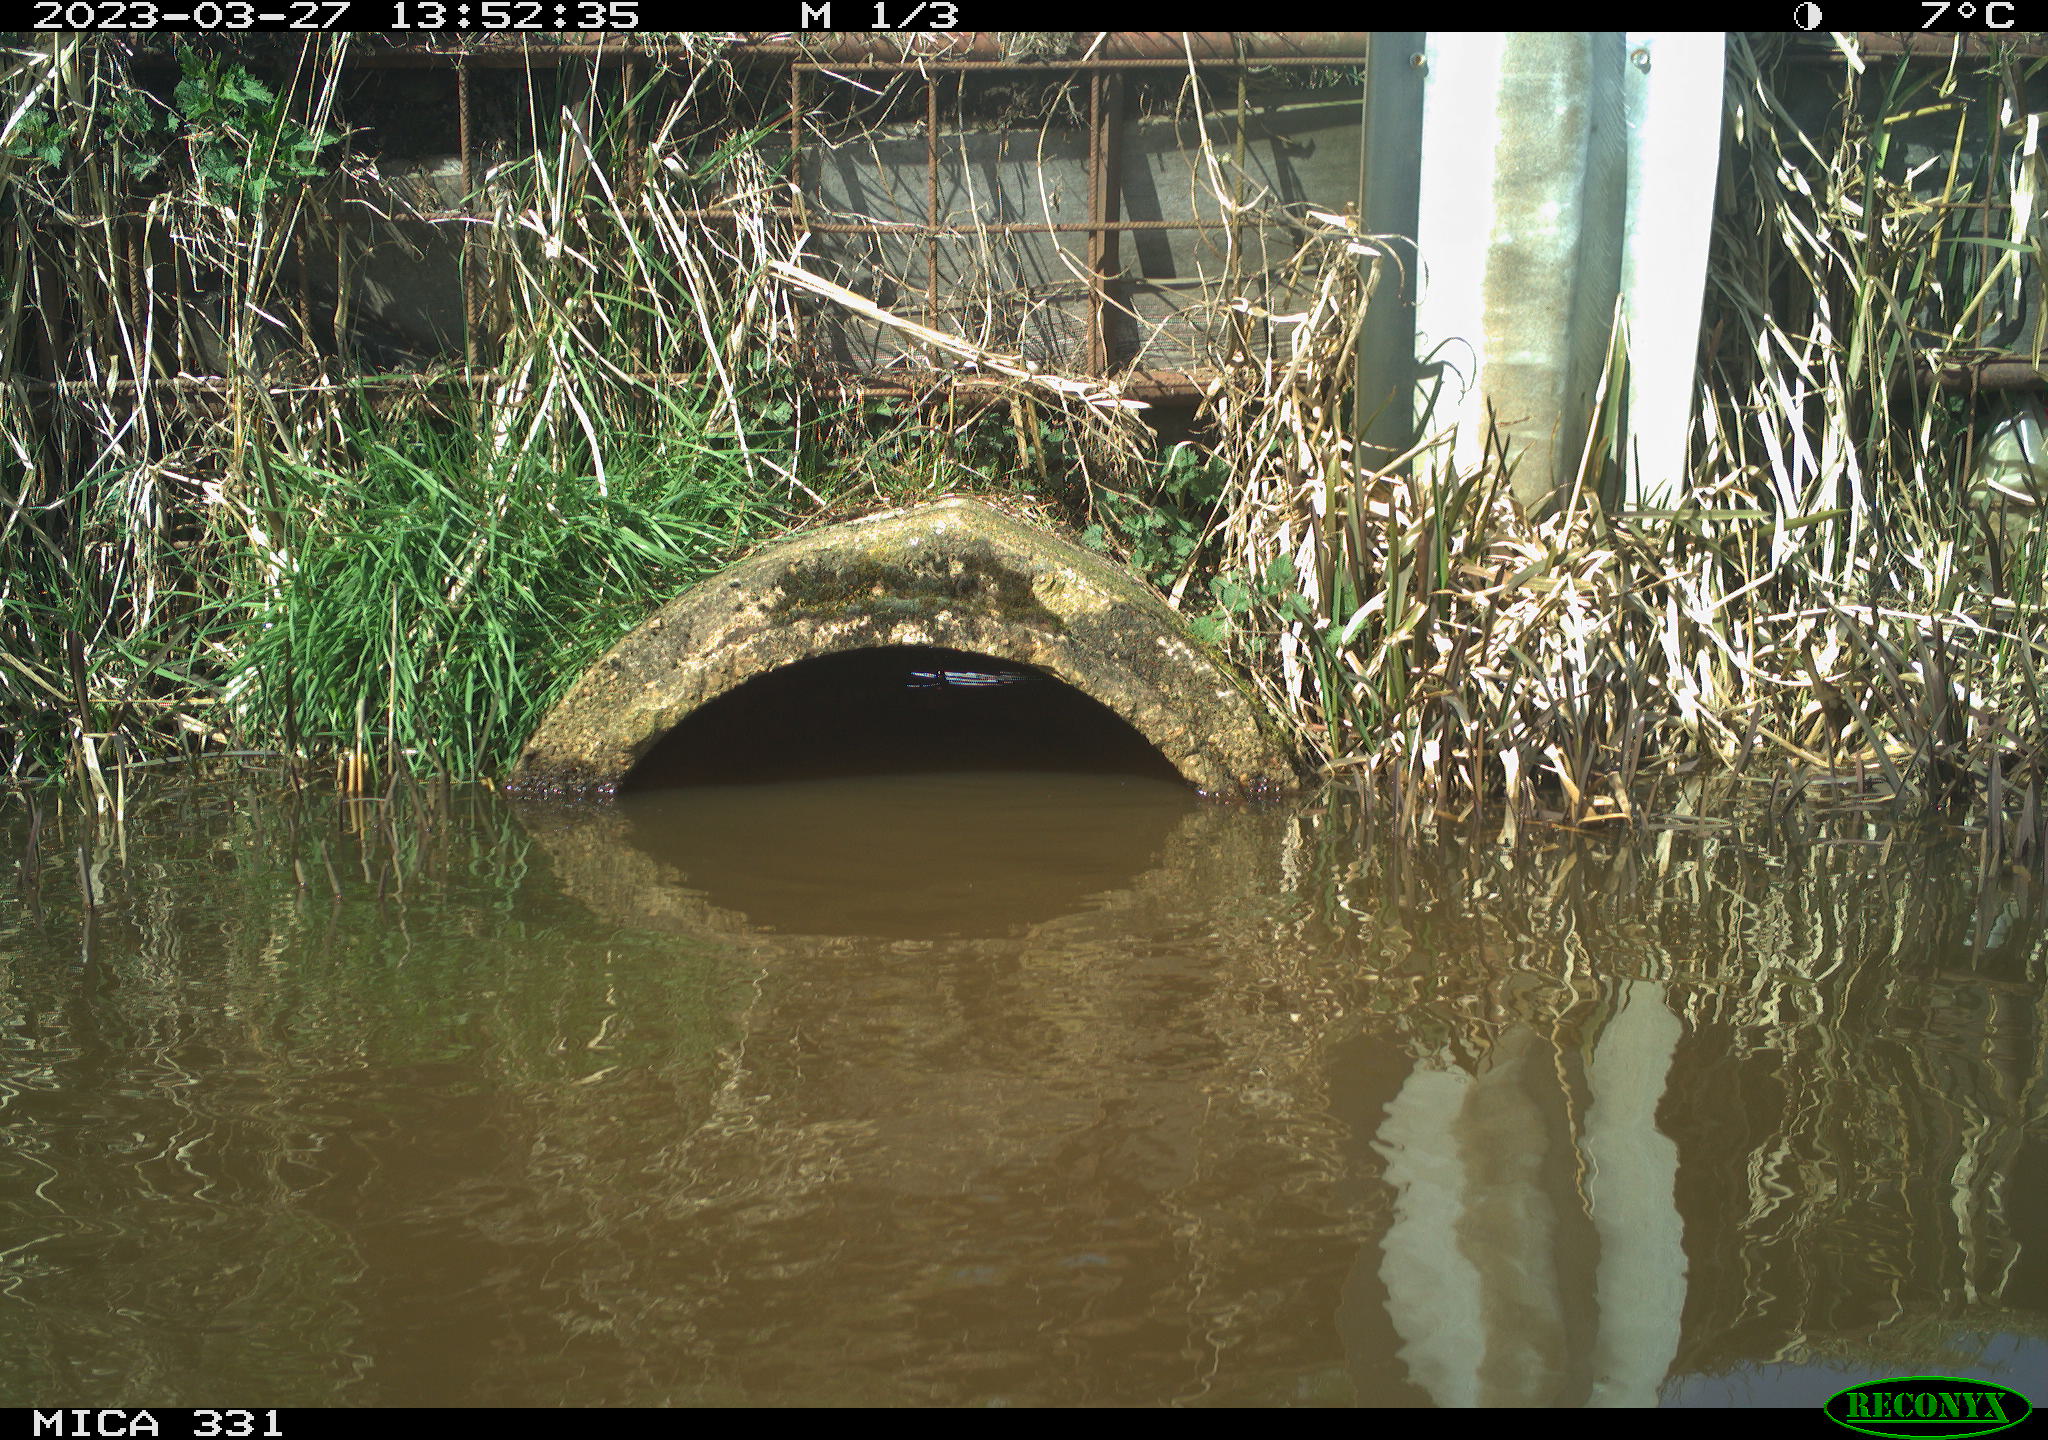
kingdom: Animalia
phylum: Chordata
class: Aves
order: Gruiformes
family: Rallidae
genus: Fulica
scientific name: Fulica atra
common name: Eurasian coot
